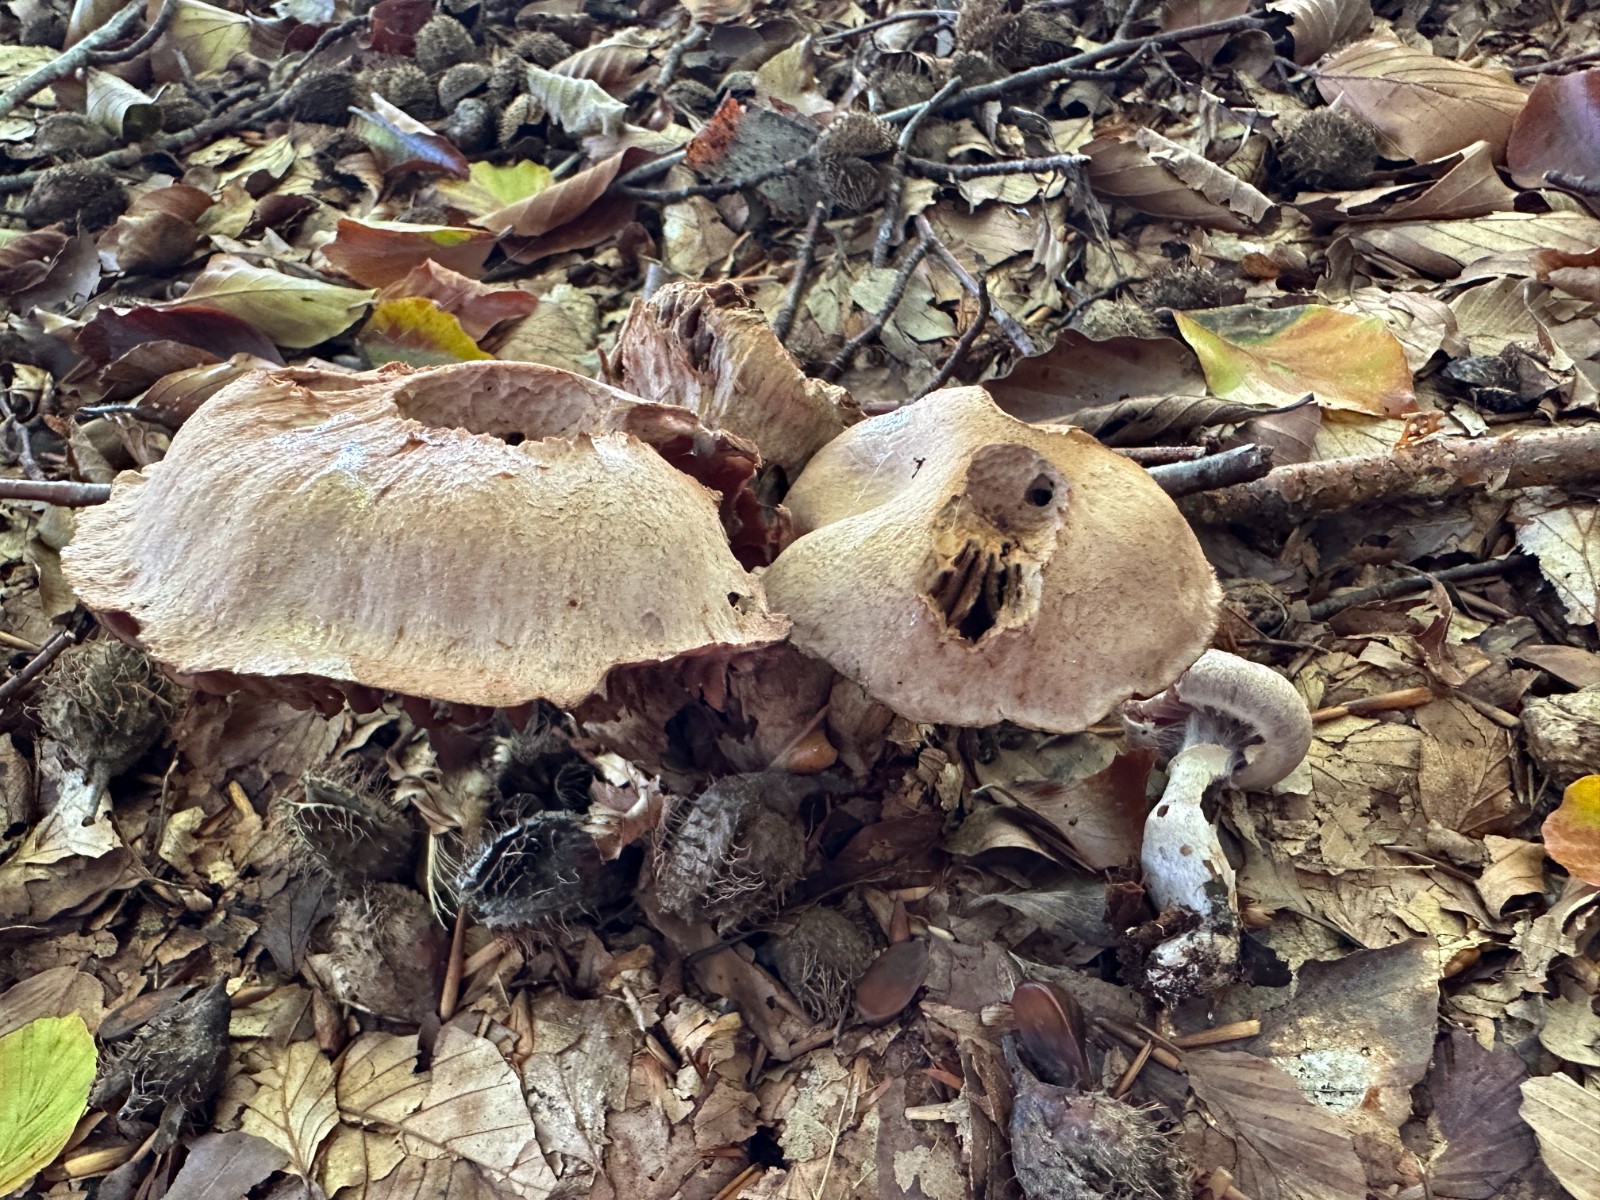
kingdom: Fungi
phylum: Basidiomycota
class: Agaricomycetes
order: Agaricales
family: Cortinariaceae
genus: Cortinarius
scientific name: Cortinarius torvus
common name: champignonagtig slørhat
